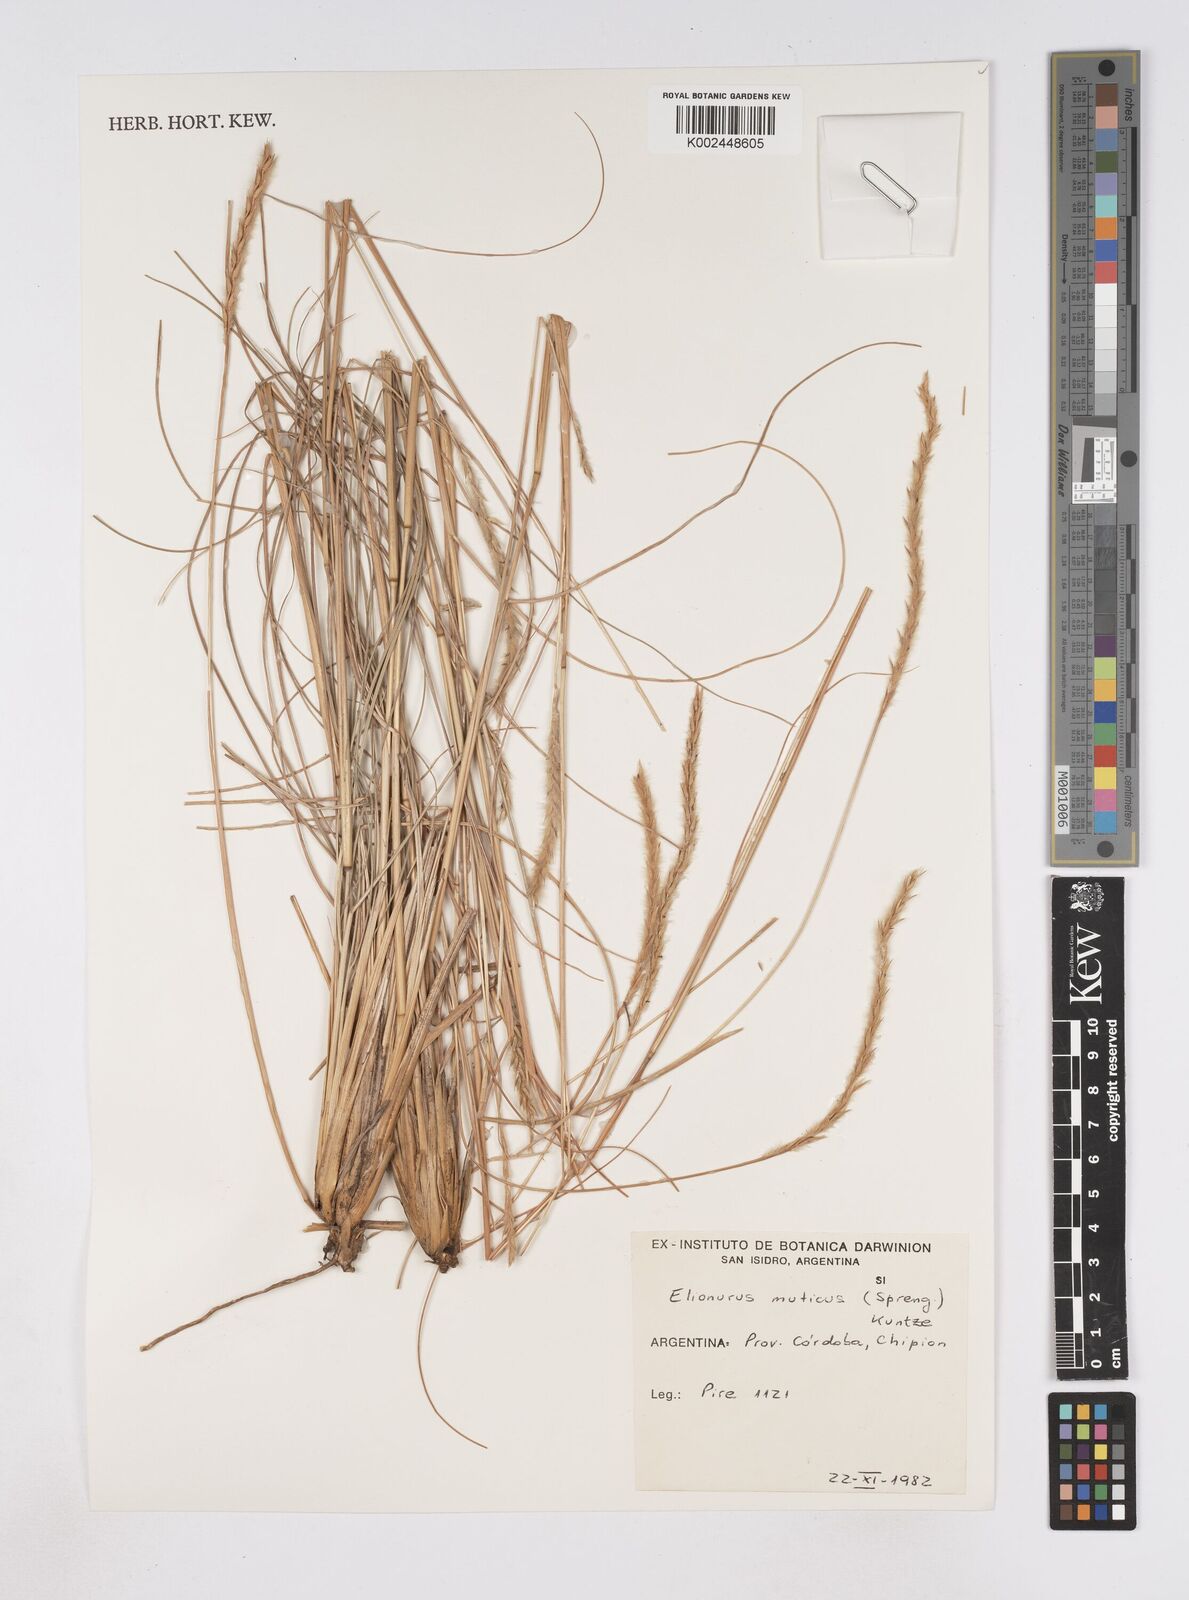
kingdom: Plantae
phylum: Tracheophyta
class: Liliopsida
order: Poales
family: Poaceae
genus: Elionurus
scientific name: Elionurus muticus
